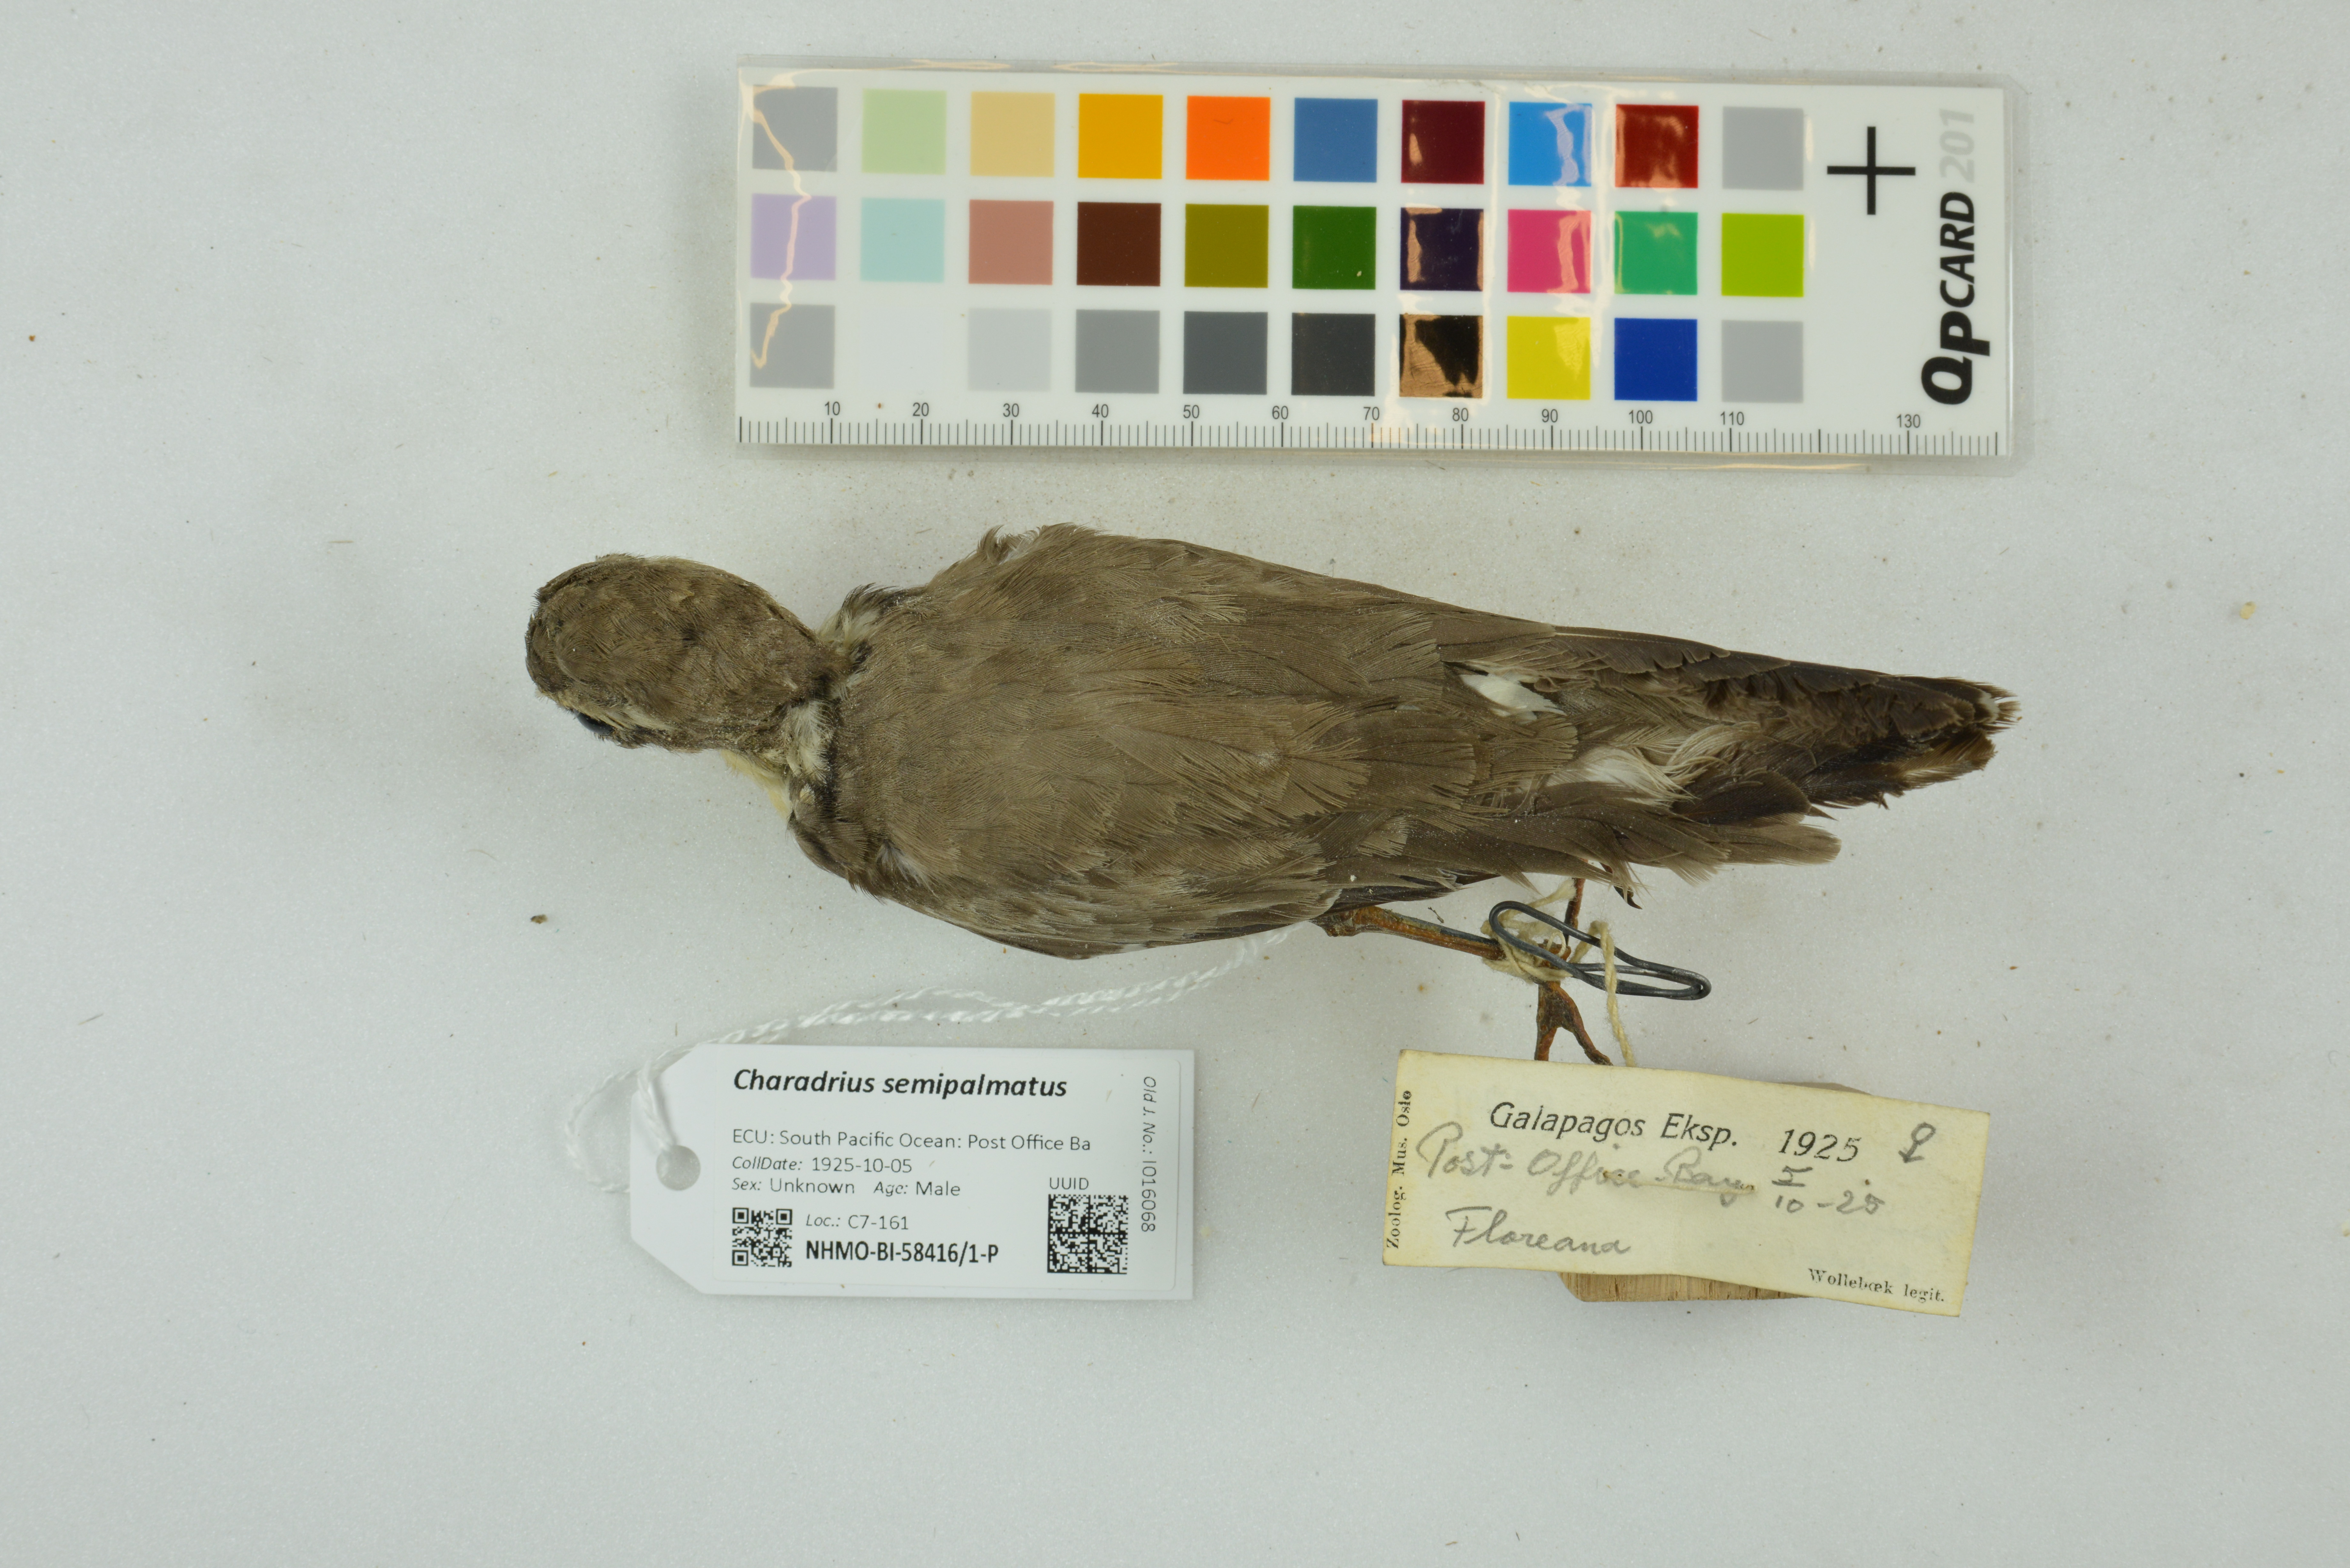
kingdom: Animalia
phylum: Chordata
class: Aves
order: Charadriiformes
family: Charadriidae
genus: Charadrius
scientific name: Charadrius semipalmatus
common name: Semipalmated plover
